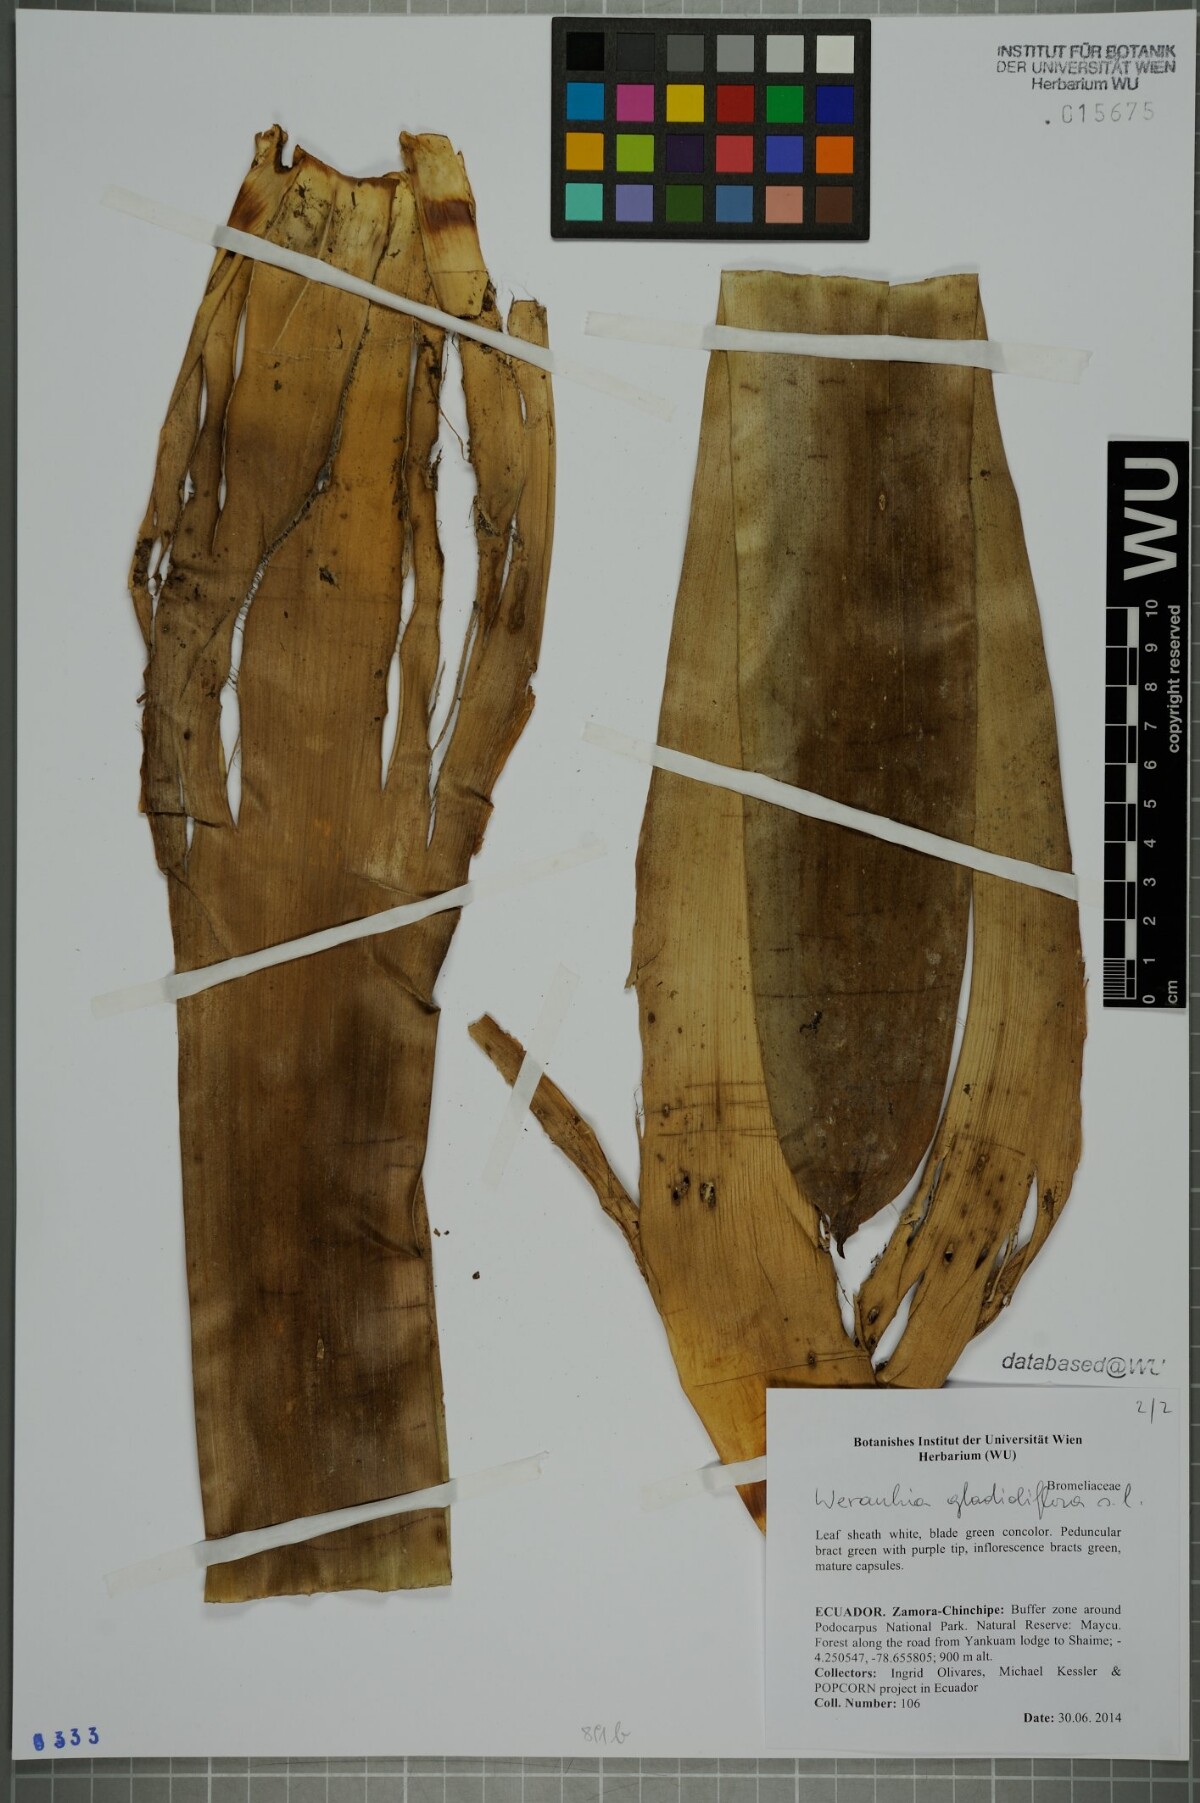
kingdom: Plantae
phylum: Tracheophyta
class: Liliopsida
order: Poales
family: Bromeliaceae
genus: Werauhia
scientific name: Werauhia gladioliflora
